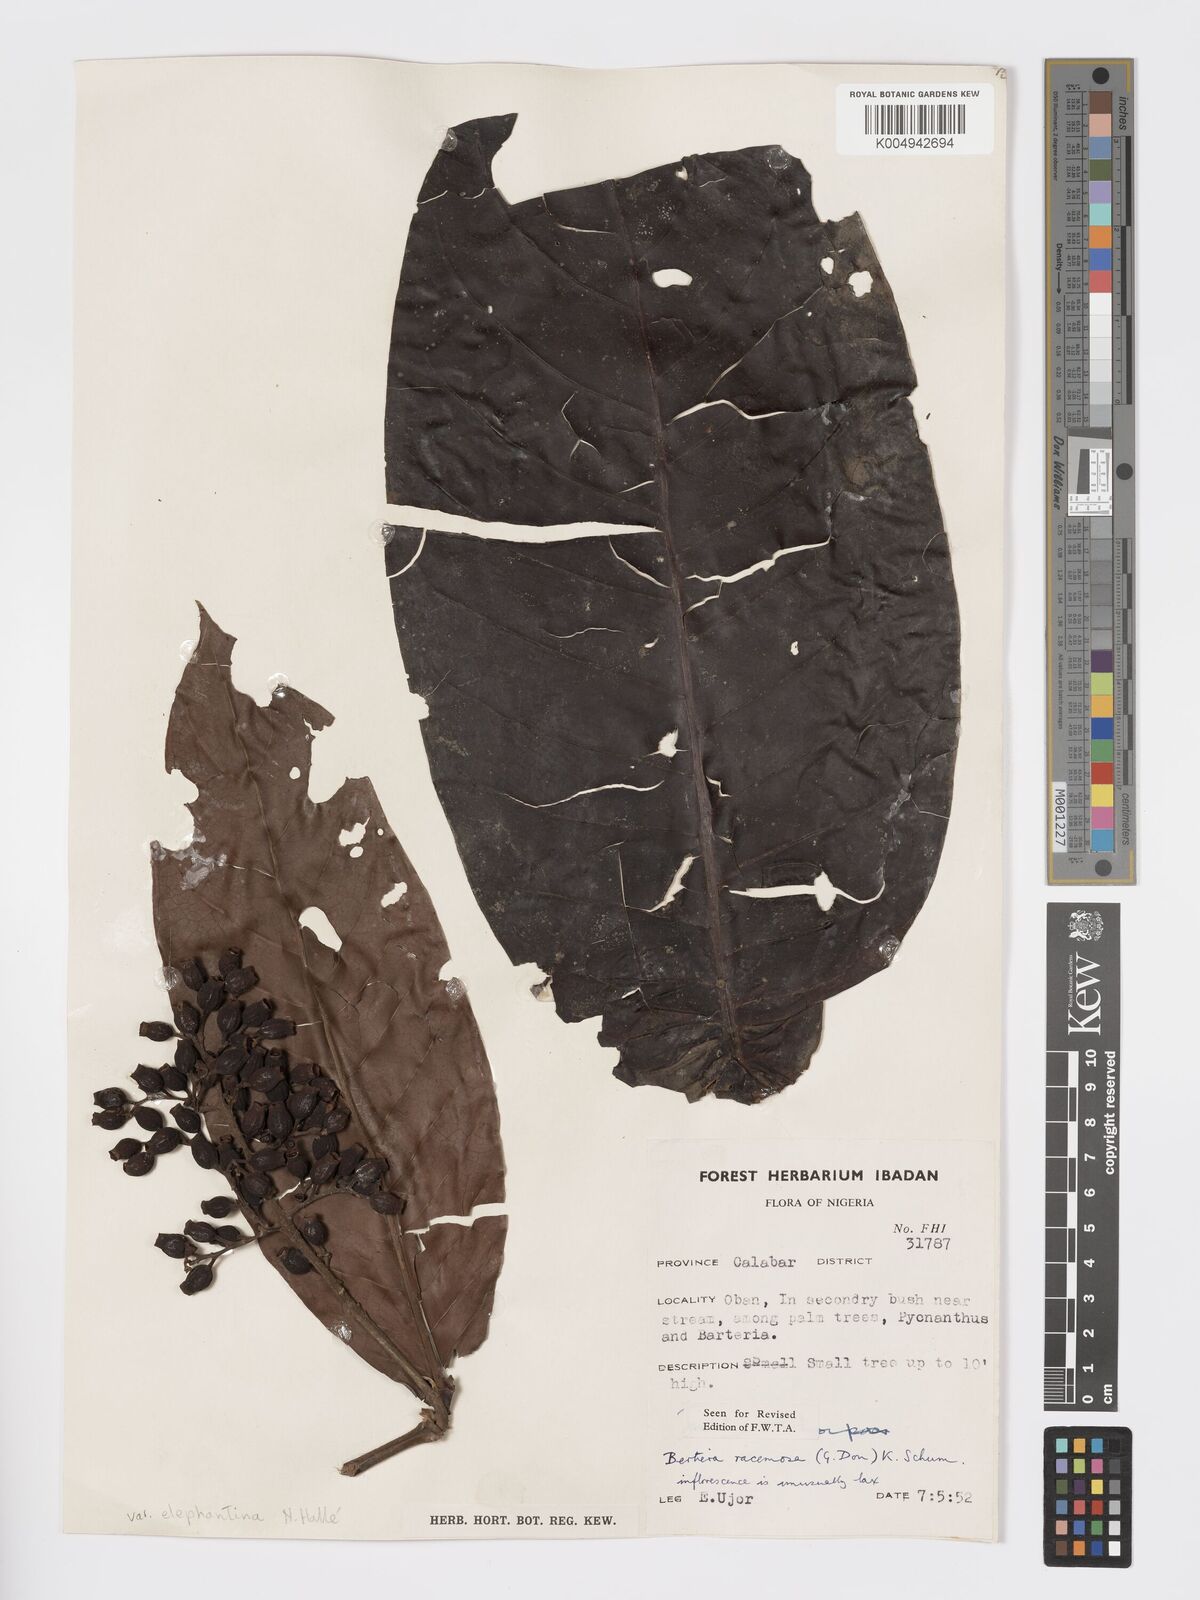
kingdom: Plantae
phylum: Tracheophyta
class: Magnoliopsida
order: Gentianales
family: Rubiaceae
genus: Bertiera
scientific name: Bertiera racemosa
